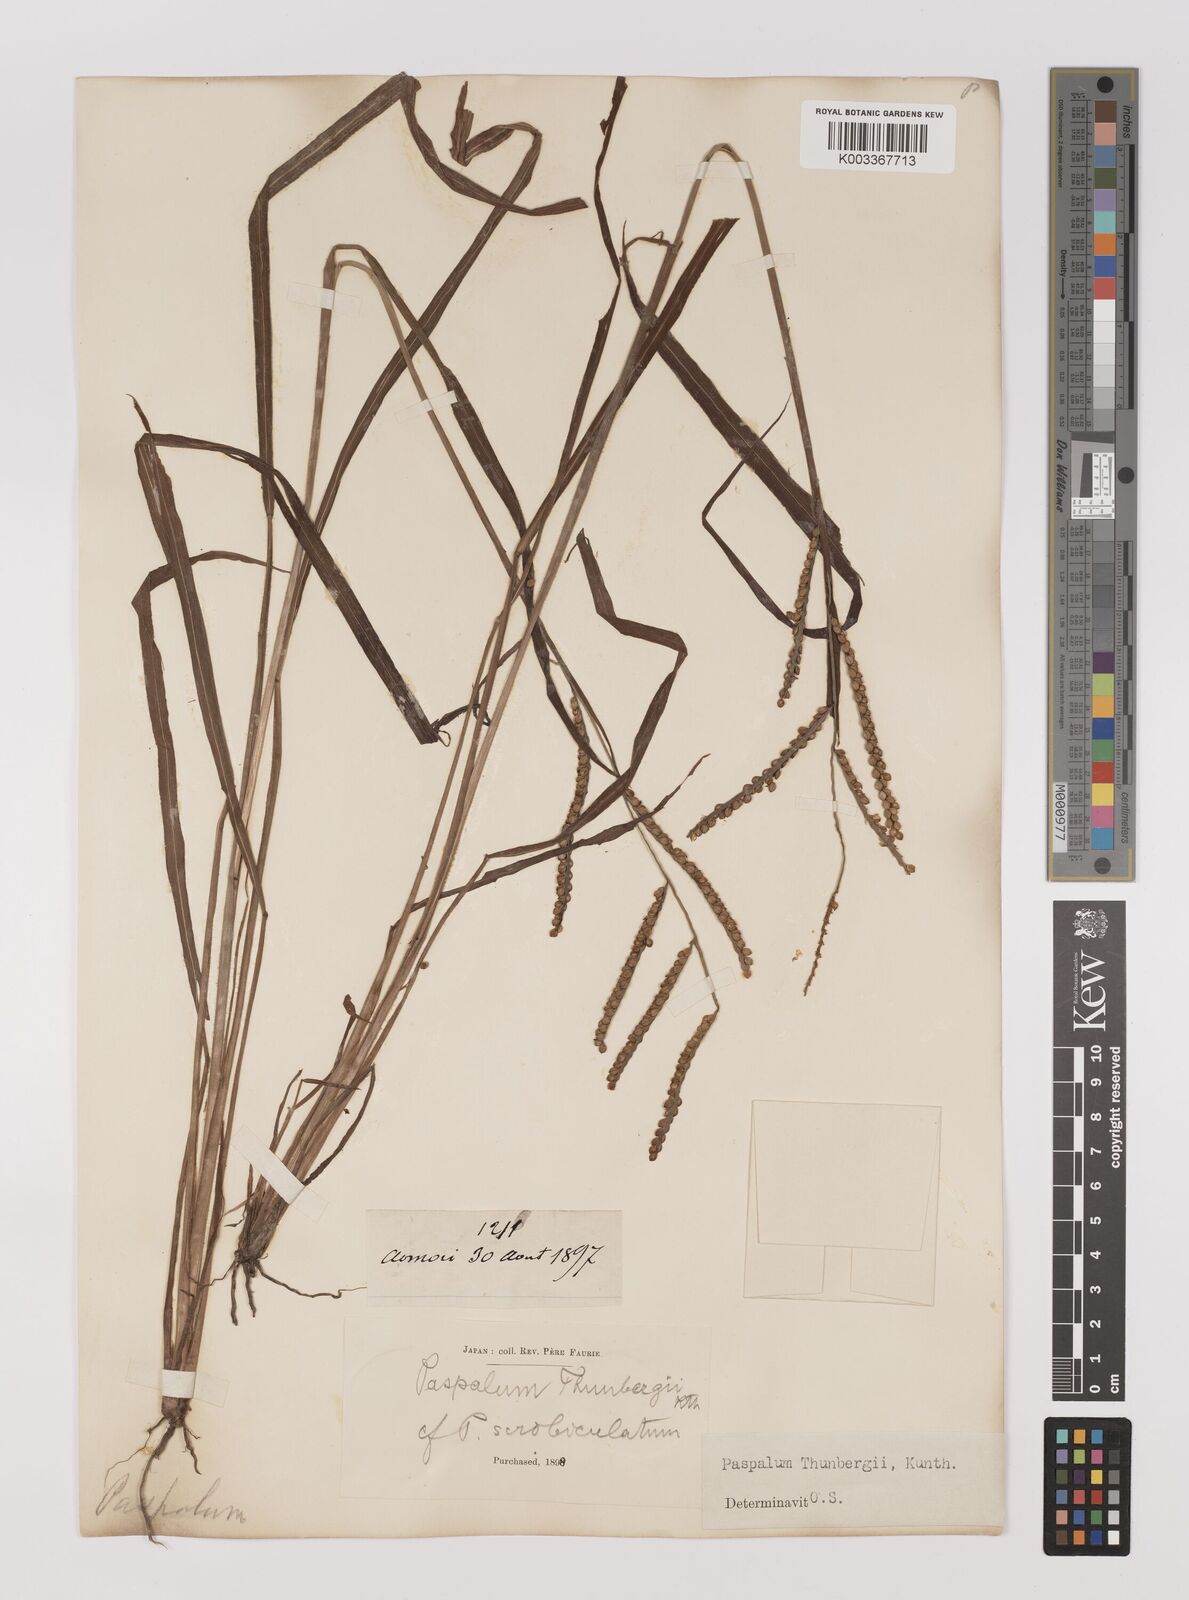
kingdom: Plantae
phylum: Tracheophyta
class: Liliopsida
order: Poales
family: Poaceae
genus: Panicum
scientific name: Panicum
